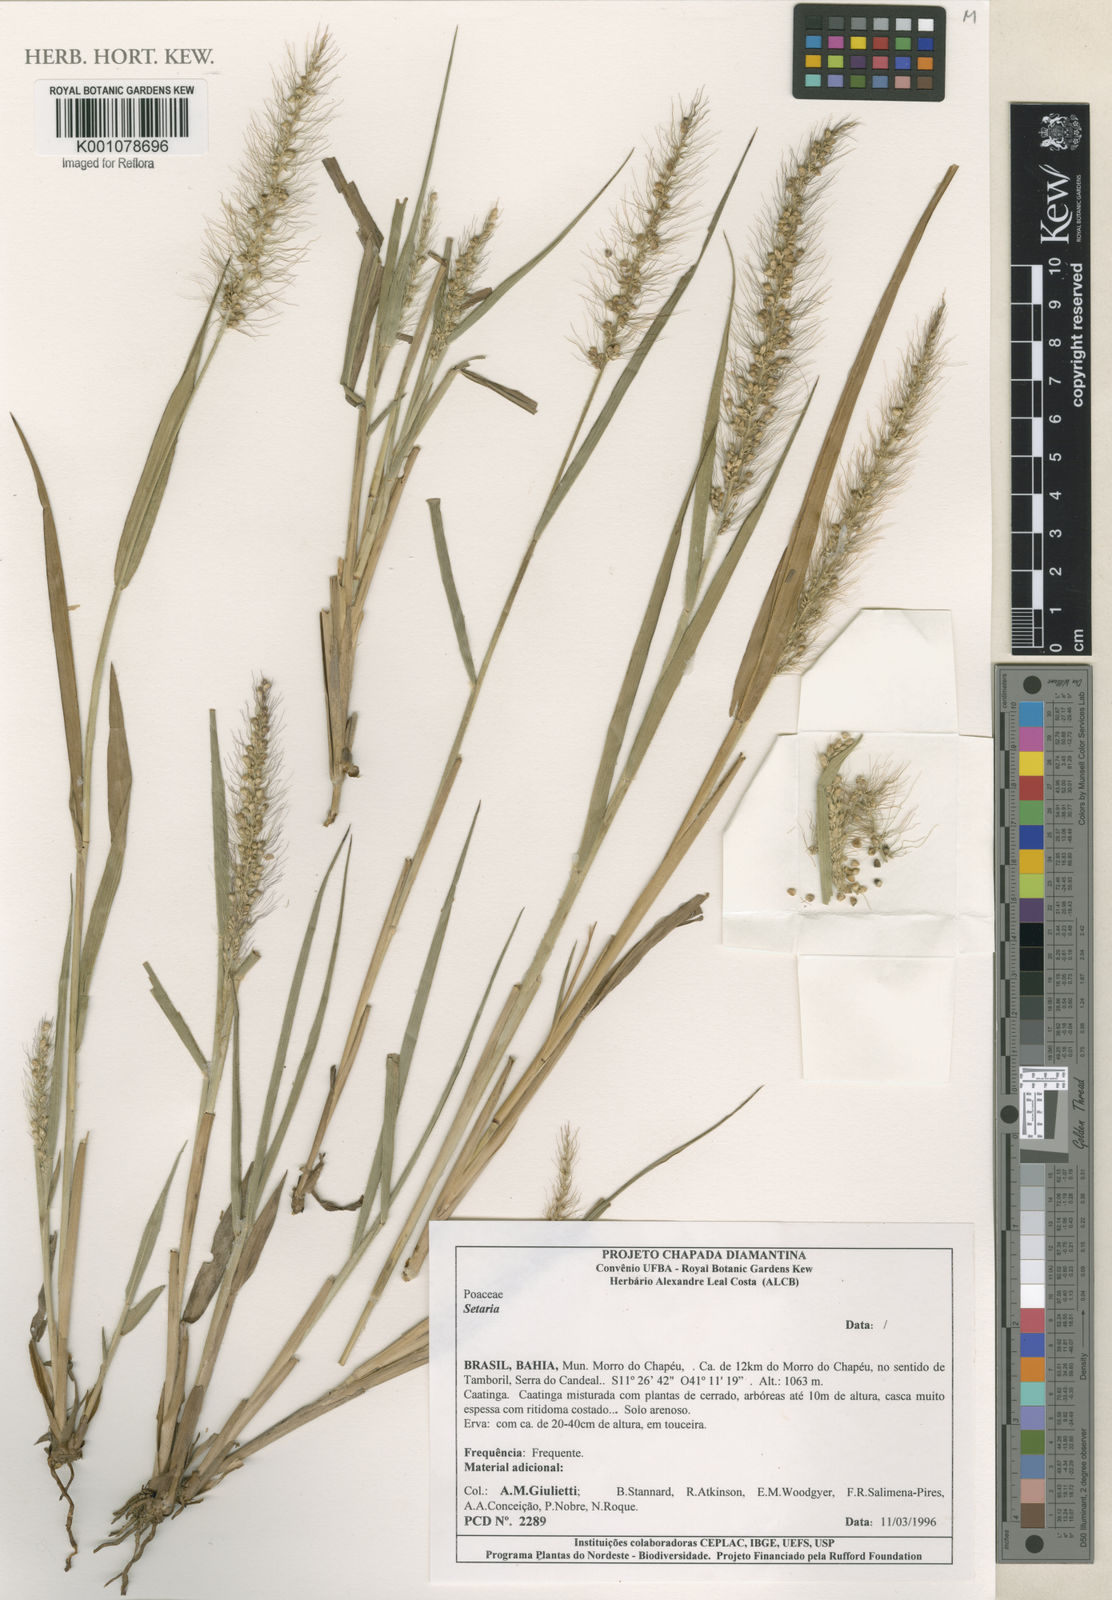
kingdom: Plantae
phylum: Tracheophyta
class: Liliopsida
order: Poales
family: Poaceae
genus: Setaria
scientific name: Setaria
